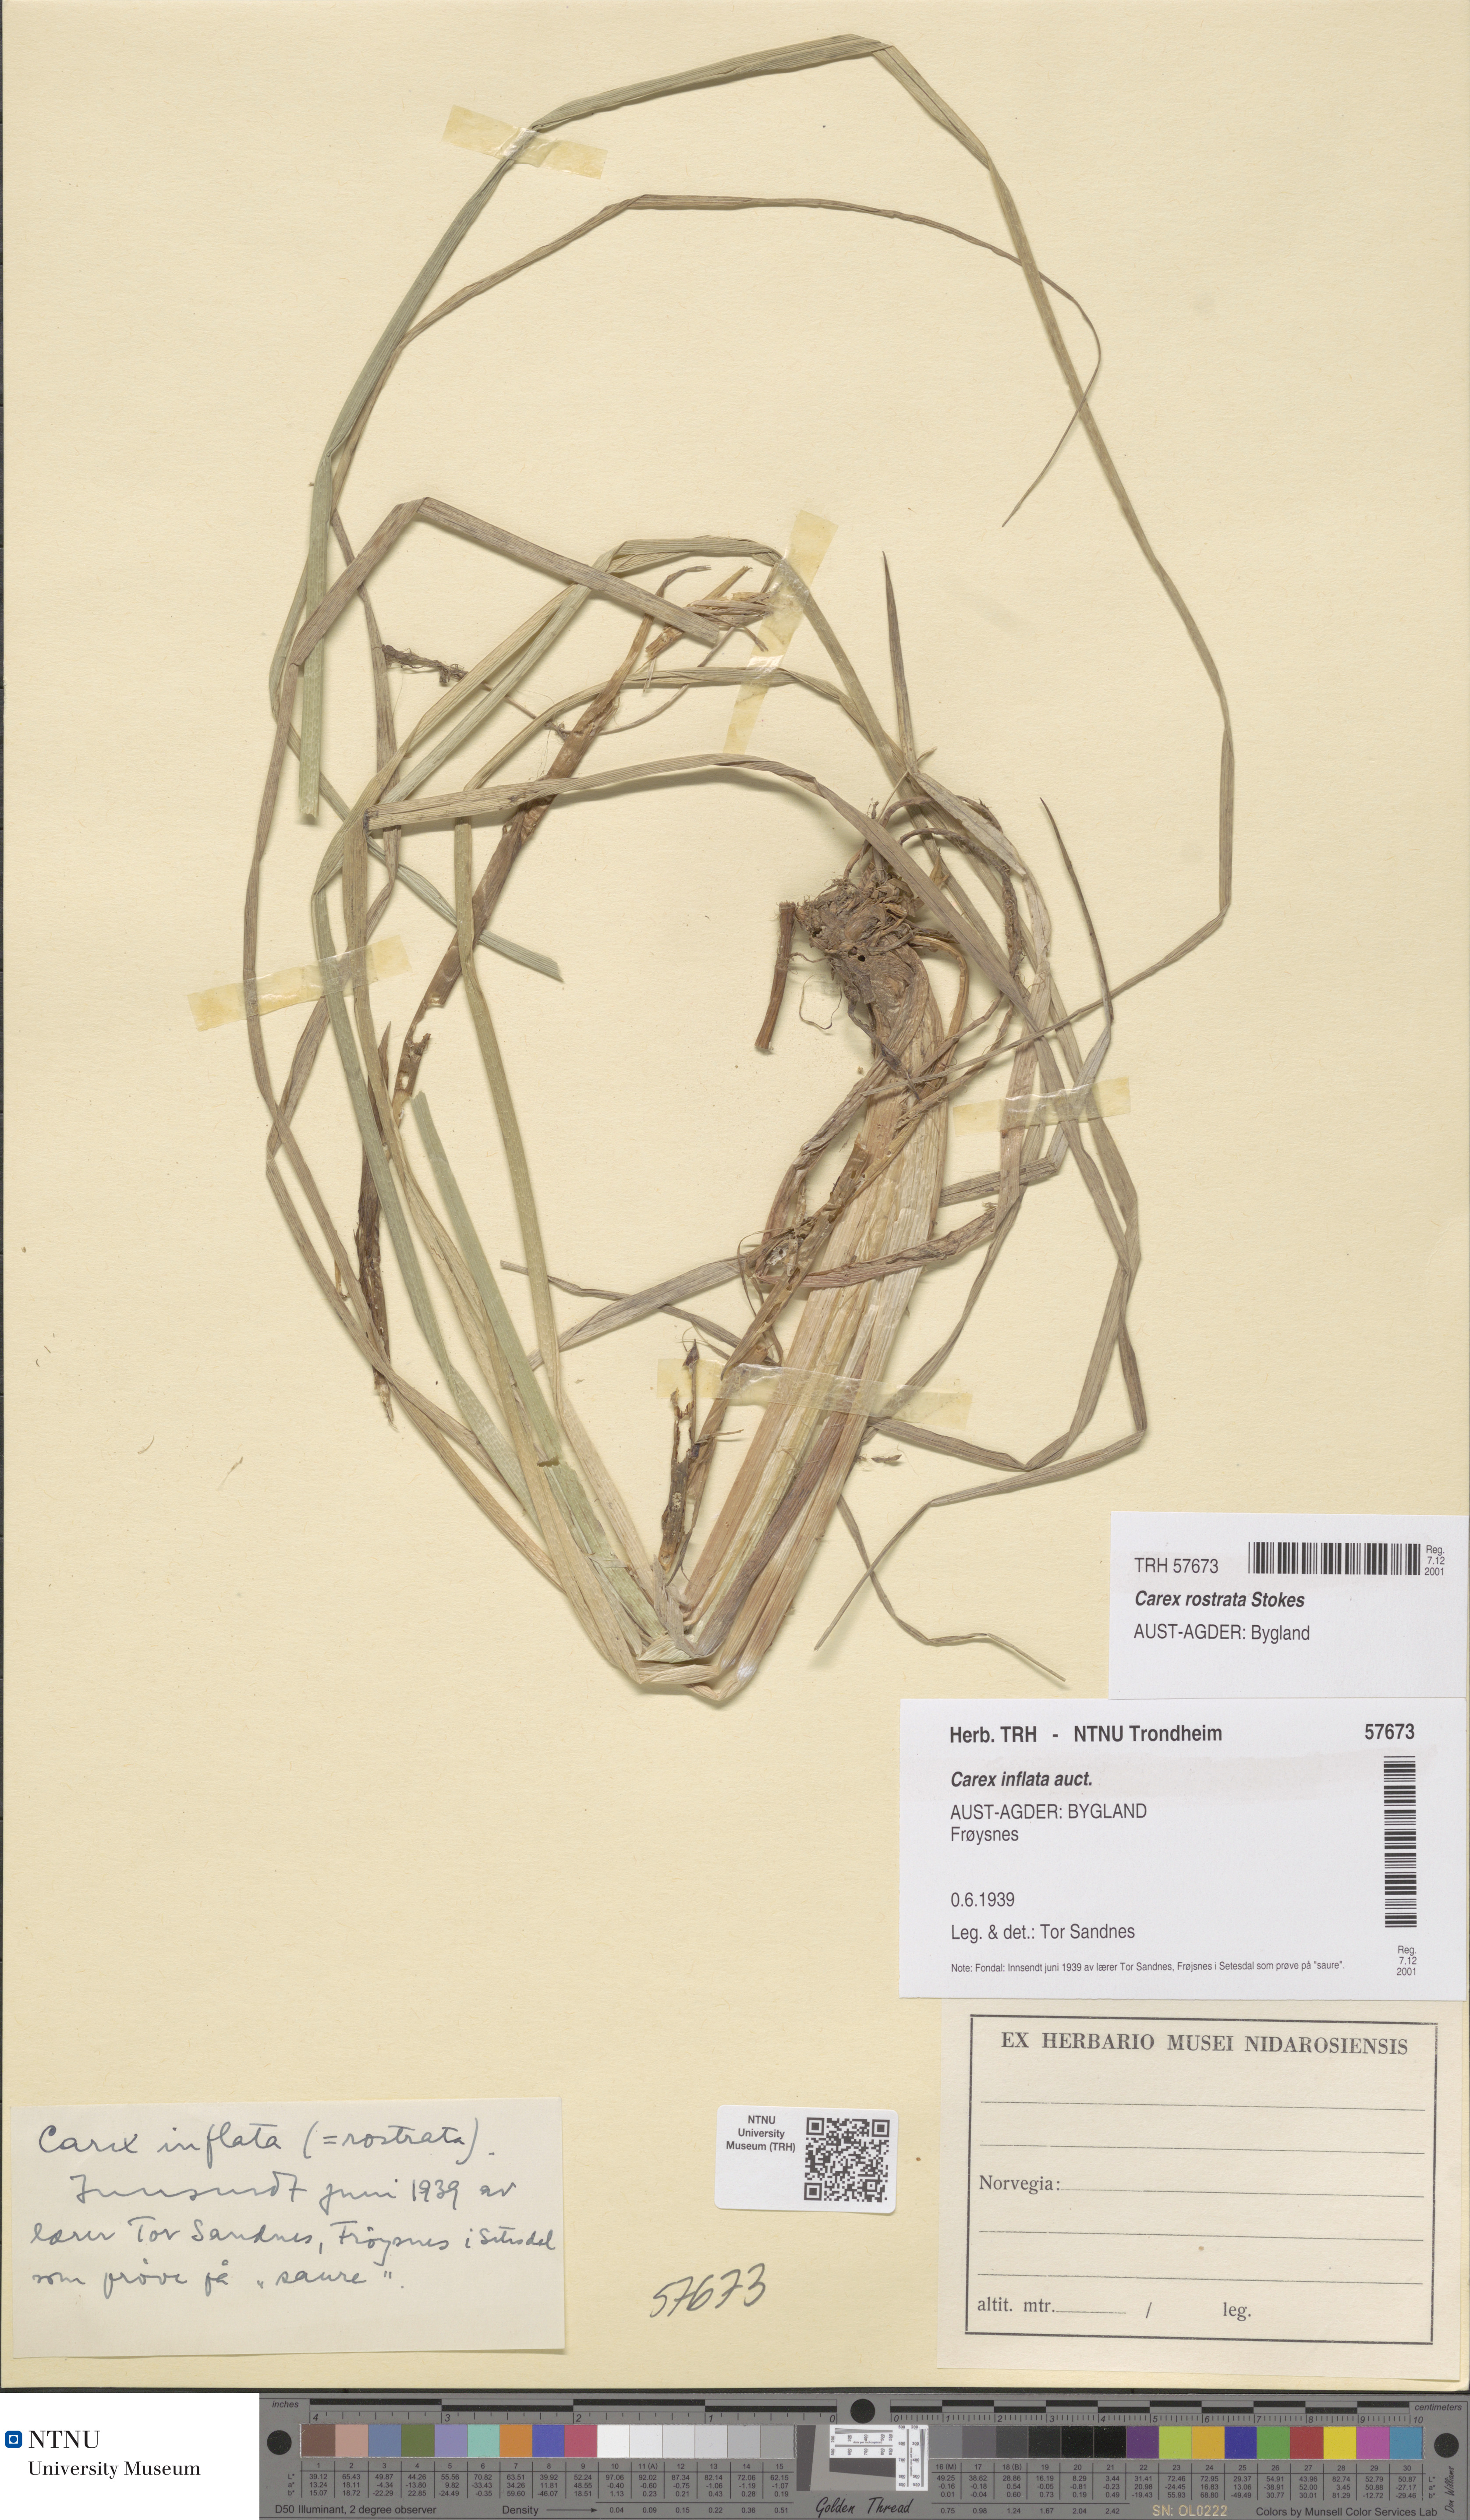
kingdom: Plantae
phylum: Tracheophyta
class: Liliopsida
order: Poales
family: Cyperaceae
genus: Carex
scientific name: Carex rostrata
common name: Bottle sedge
